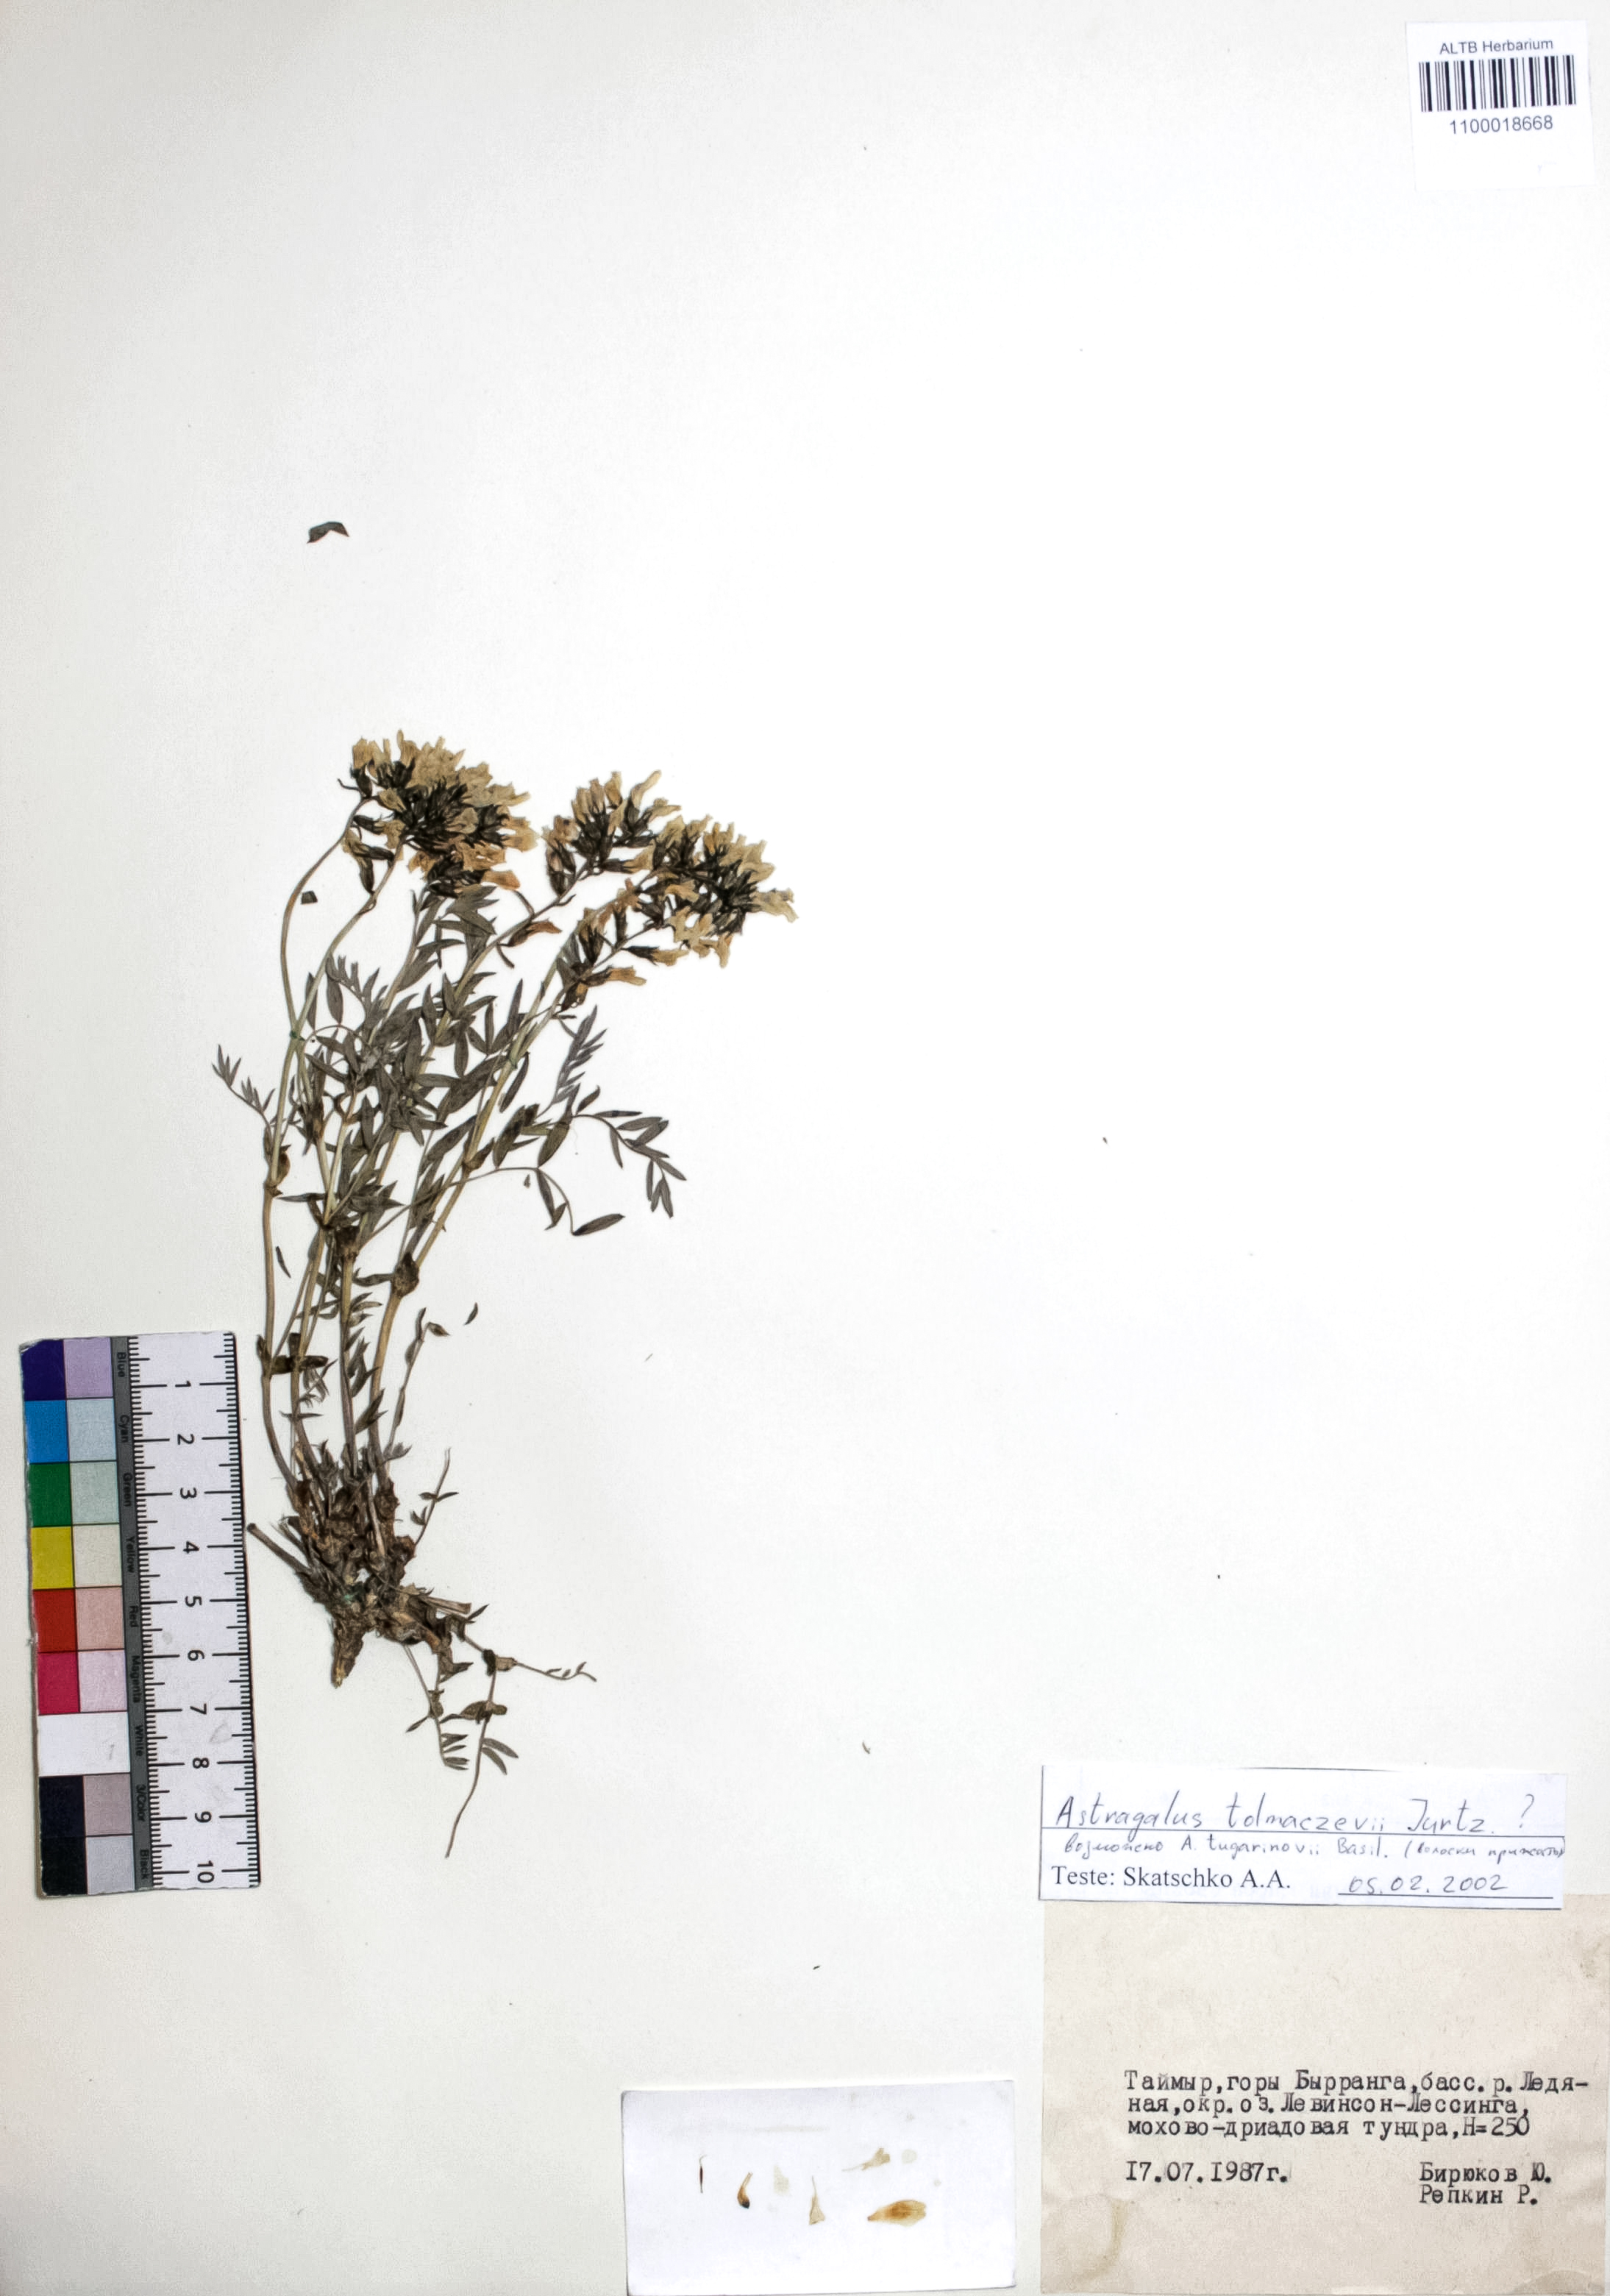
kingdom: Plantae
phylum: Tracheophyta
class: Magnoliopsida
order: Fabales
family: Fabaceae
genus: Astragalus
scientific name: Astragalus tolmaczevii
